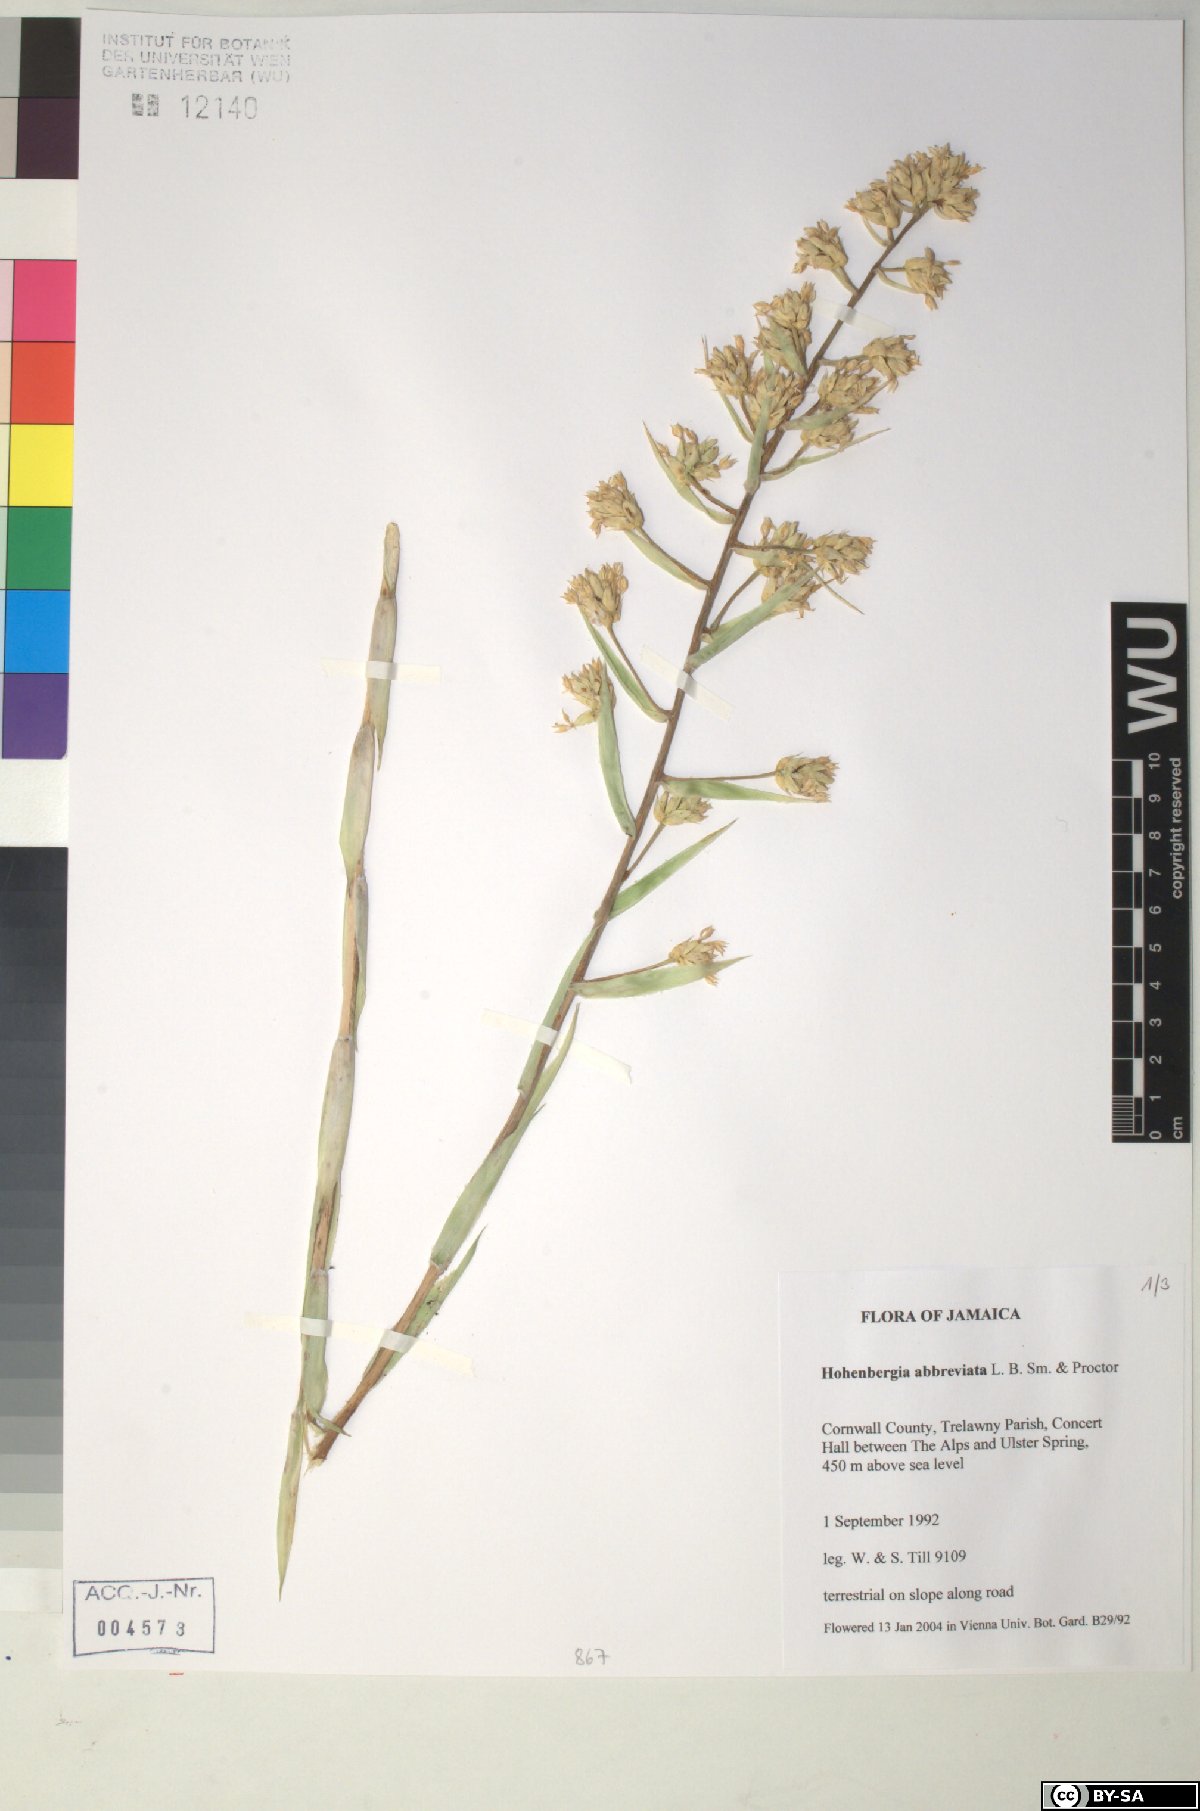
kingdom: Plantae
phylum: Tracheophyta
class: Liliopsida
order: Poales
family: Bromeliaceae
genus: Wittmackia
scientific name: Wittmackia abbreviata
